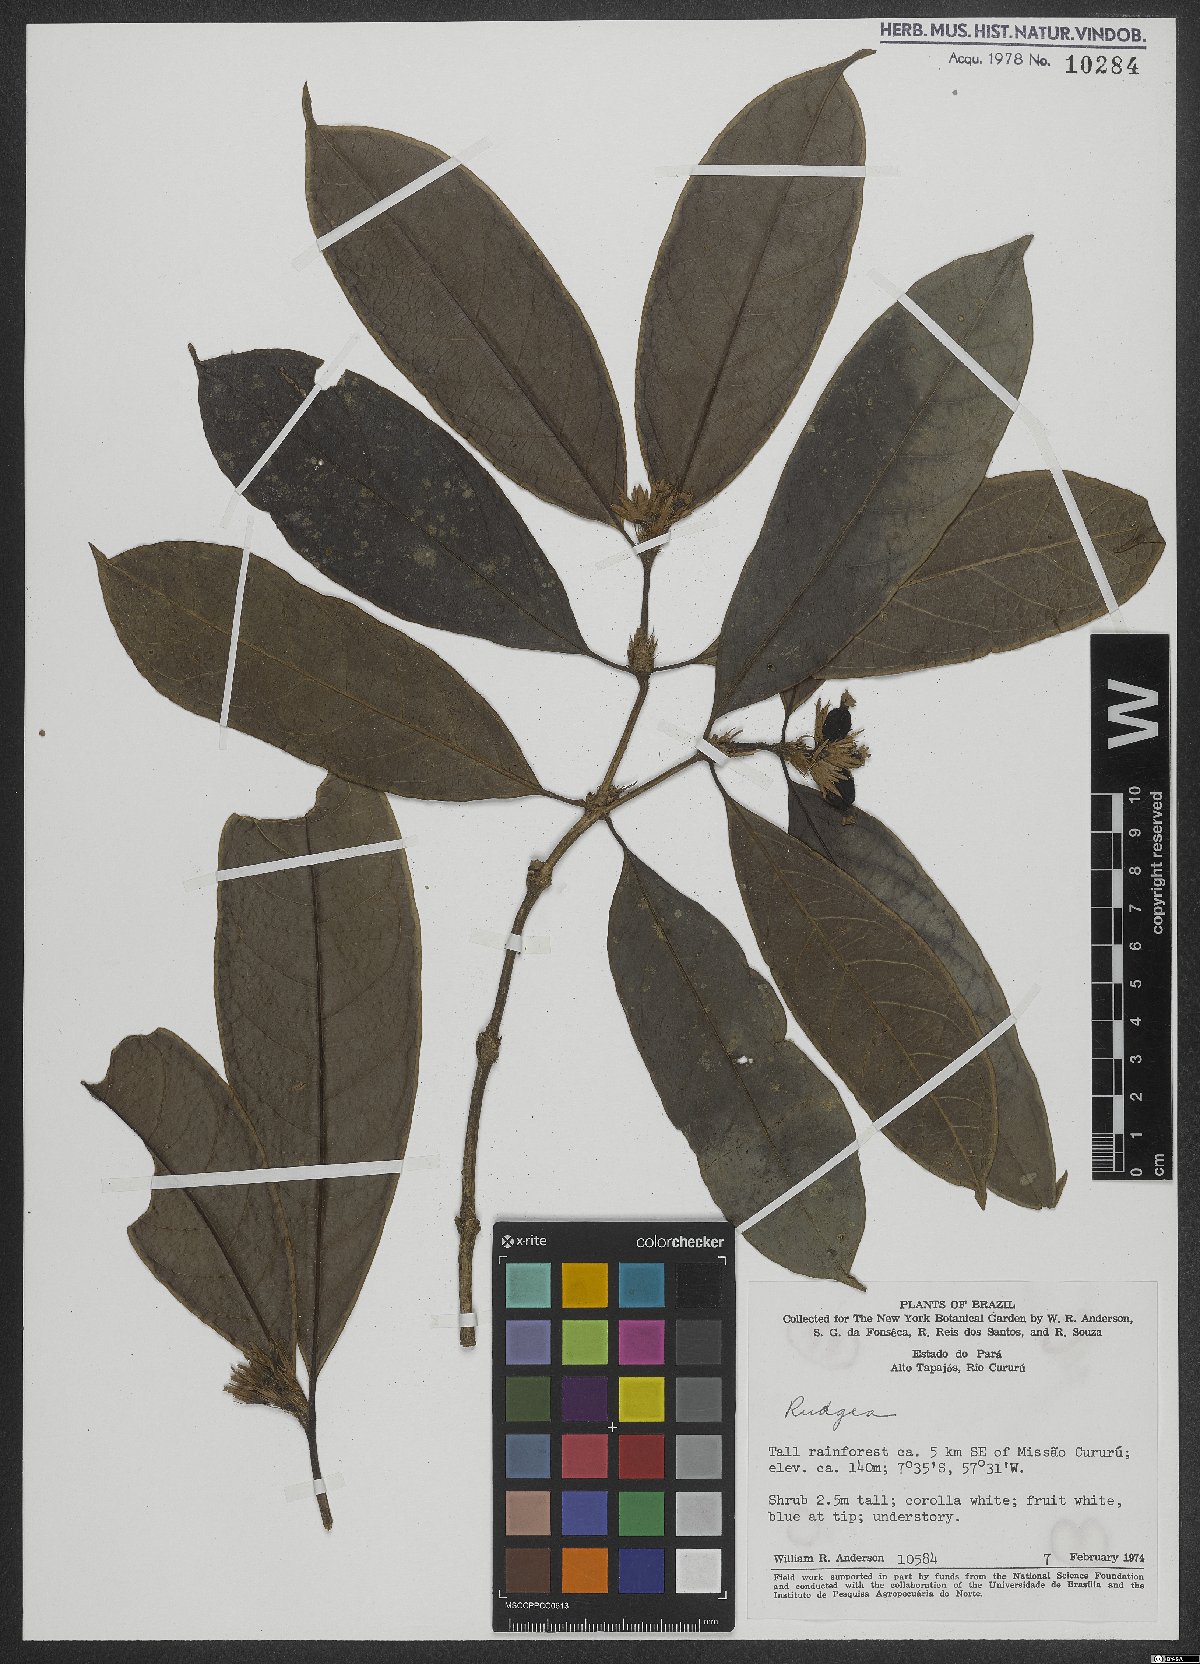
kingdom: Plantae
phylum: Tracheophyta
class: Magnoliopsida
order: Gentianales
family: Rubiaceae
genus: Rudgea
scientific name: Rudgea
